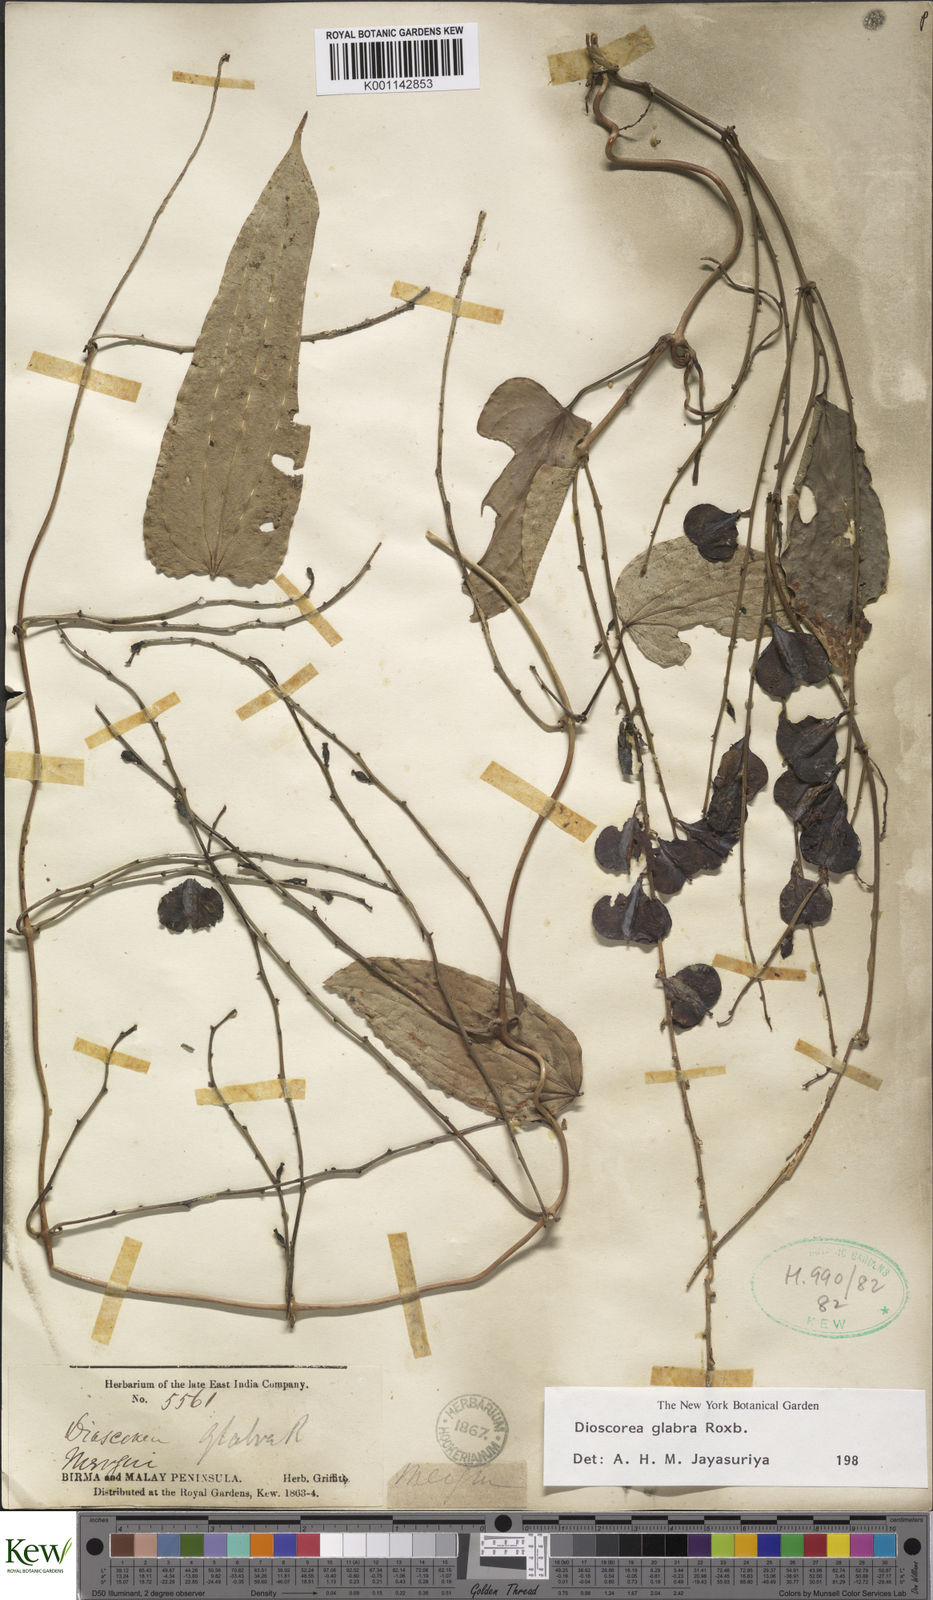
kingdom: Plantae
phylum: Tracheophyta
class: Liliopsida
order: Dioscoreales
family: Dioscoreaceae
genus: Dioscorea
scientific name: Dioscorea glabra
